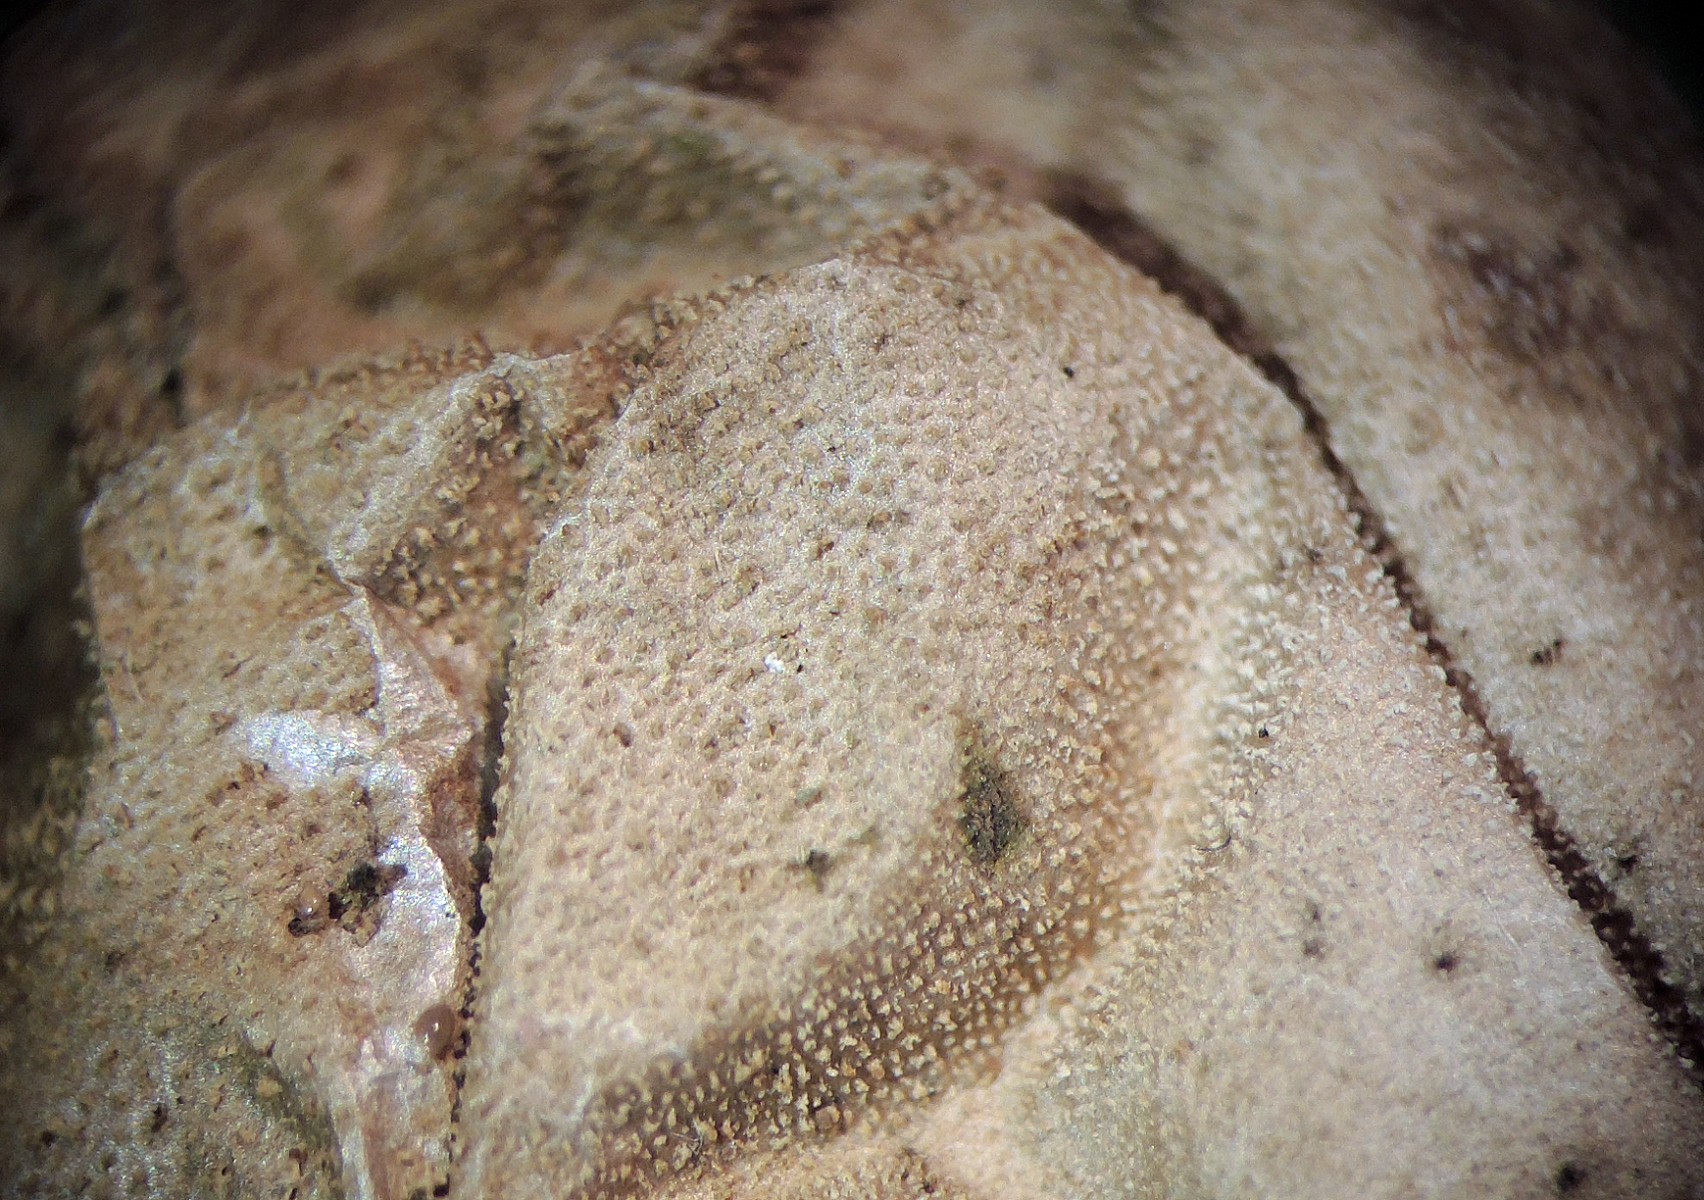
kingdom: Fungi
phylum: Basidiomycota
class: Agaricomycetes
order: Agaricales
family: Lycoperdaceae
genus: Lycoperdon
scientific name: Lycoperdon lividum
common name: mark-støvbold
